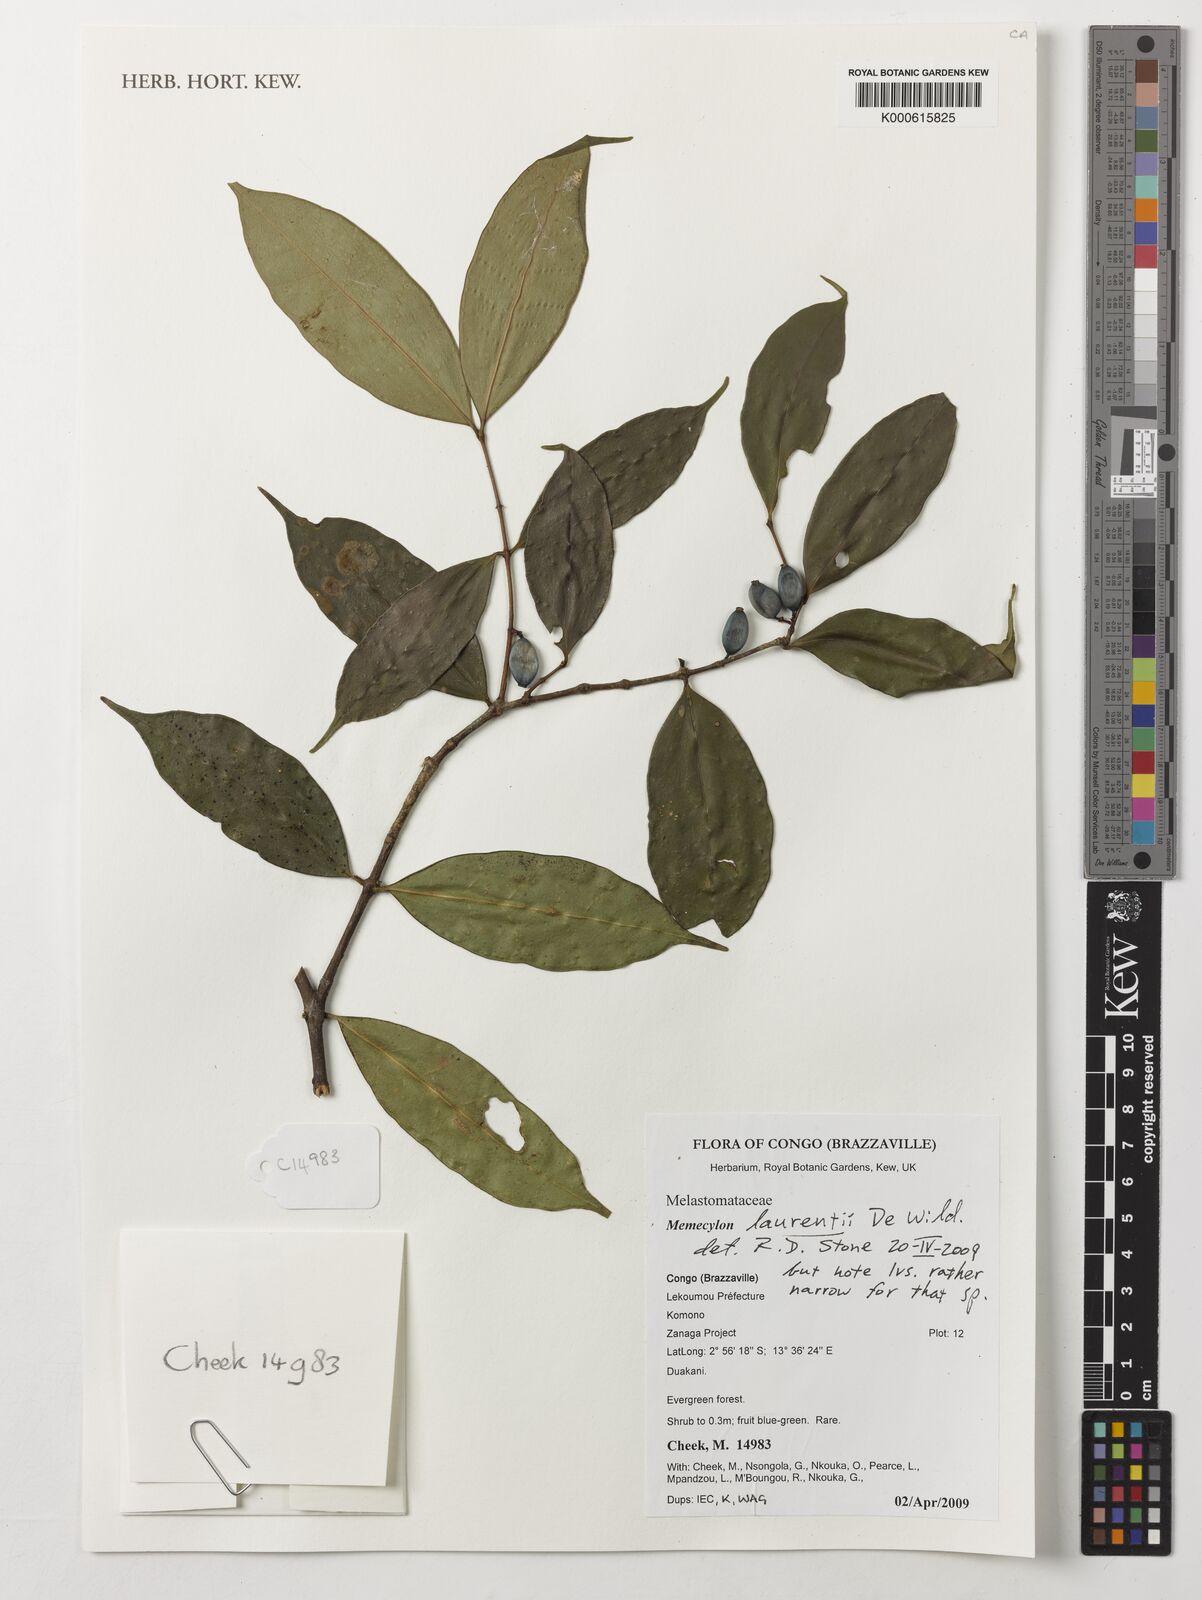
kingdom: Plantae
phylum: Tracheophyta
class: Magnoliopsida
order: Myrtales
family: Melastomataceae
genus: Memecylon
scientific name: Memecylon laurentii
